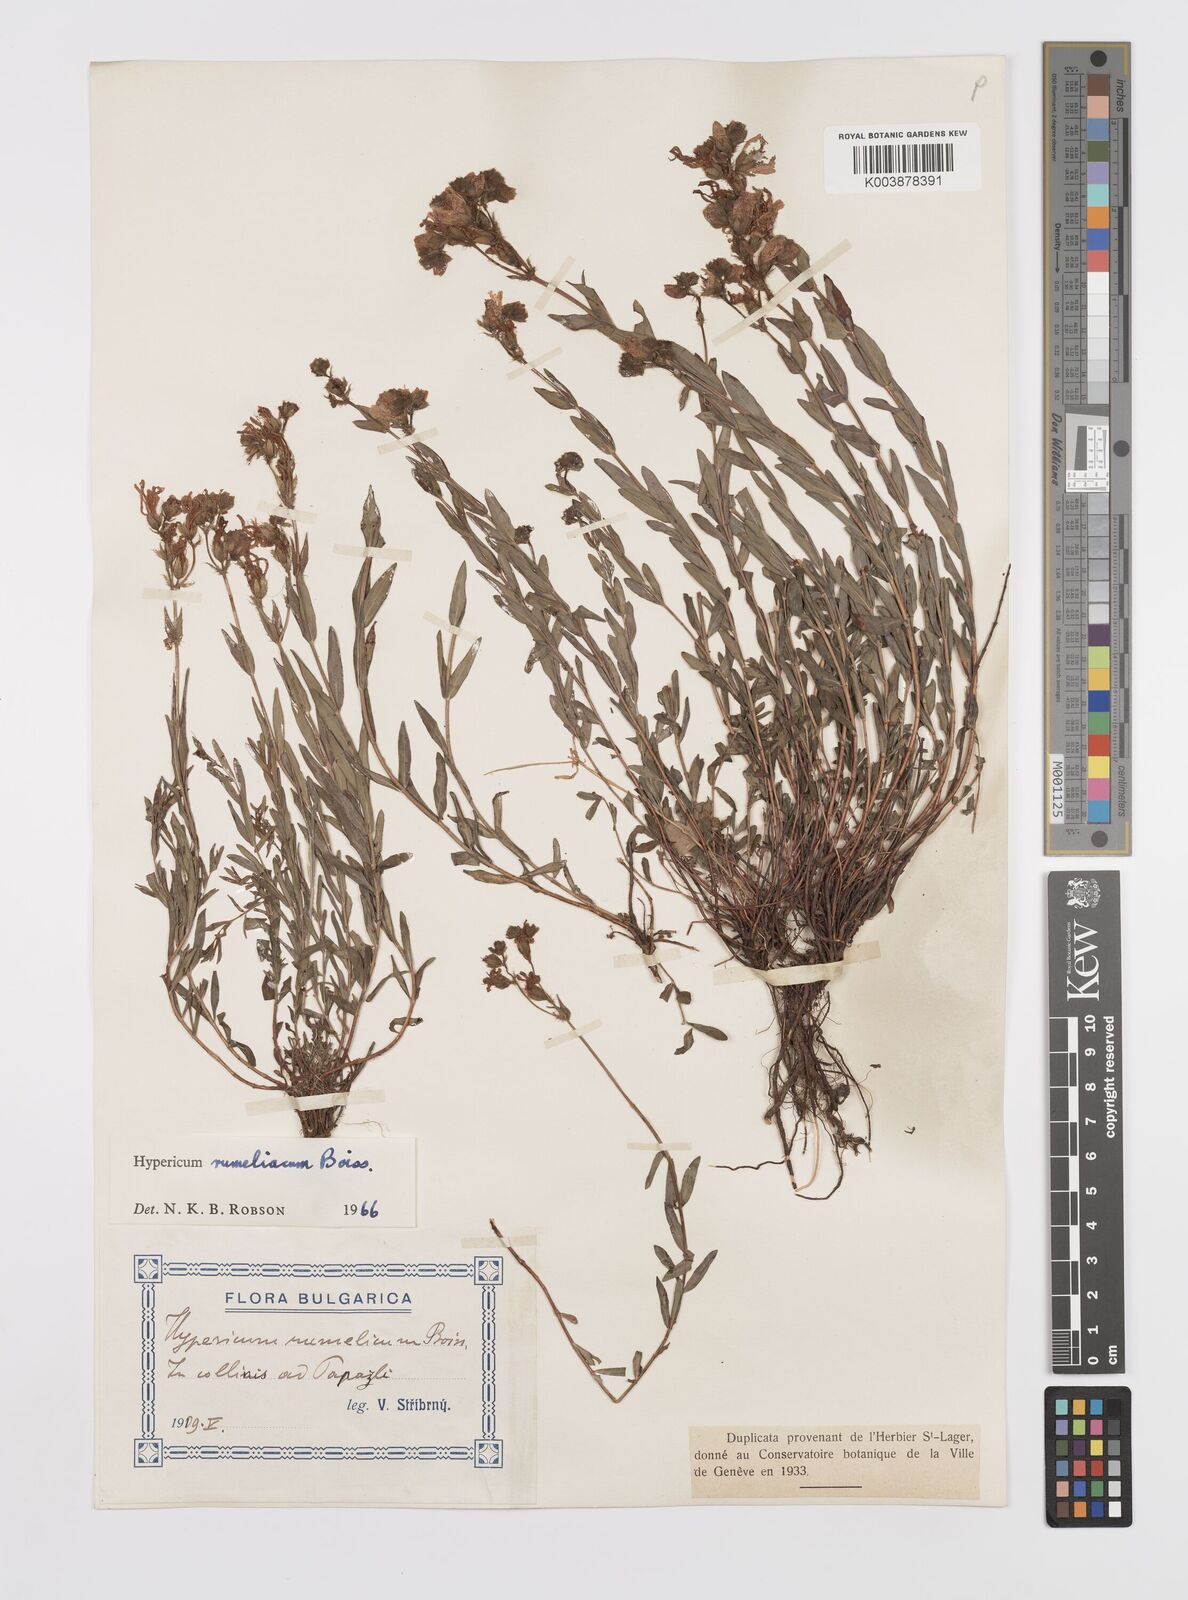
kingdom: Plantae
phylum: Tracheophyta
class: Magnoliopsida
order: Malpighiales
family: Hypericaceae
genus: Hypericum
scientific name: Hypericum rumeliacum
